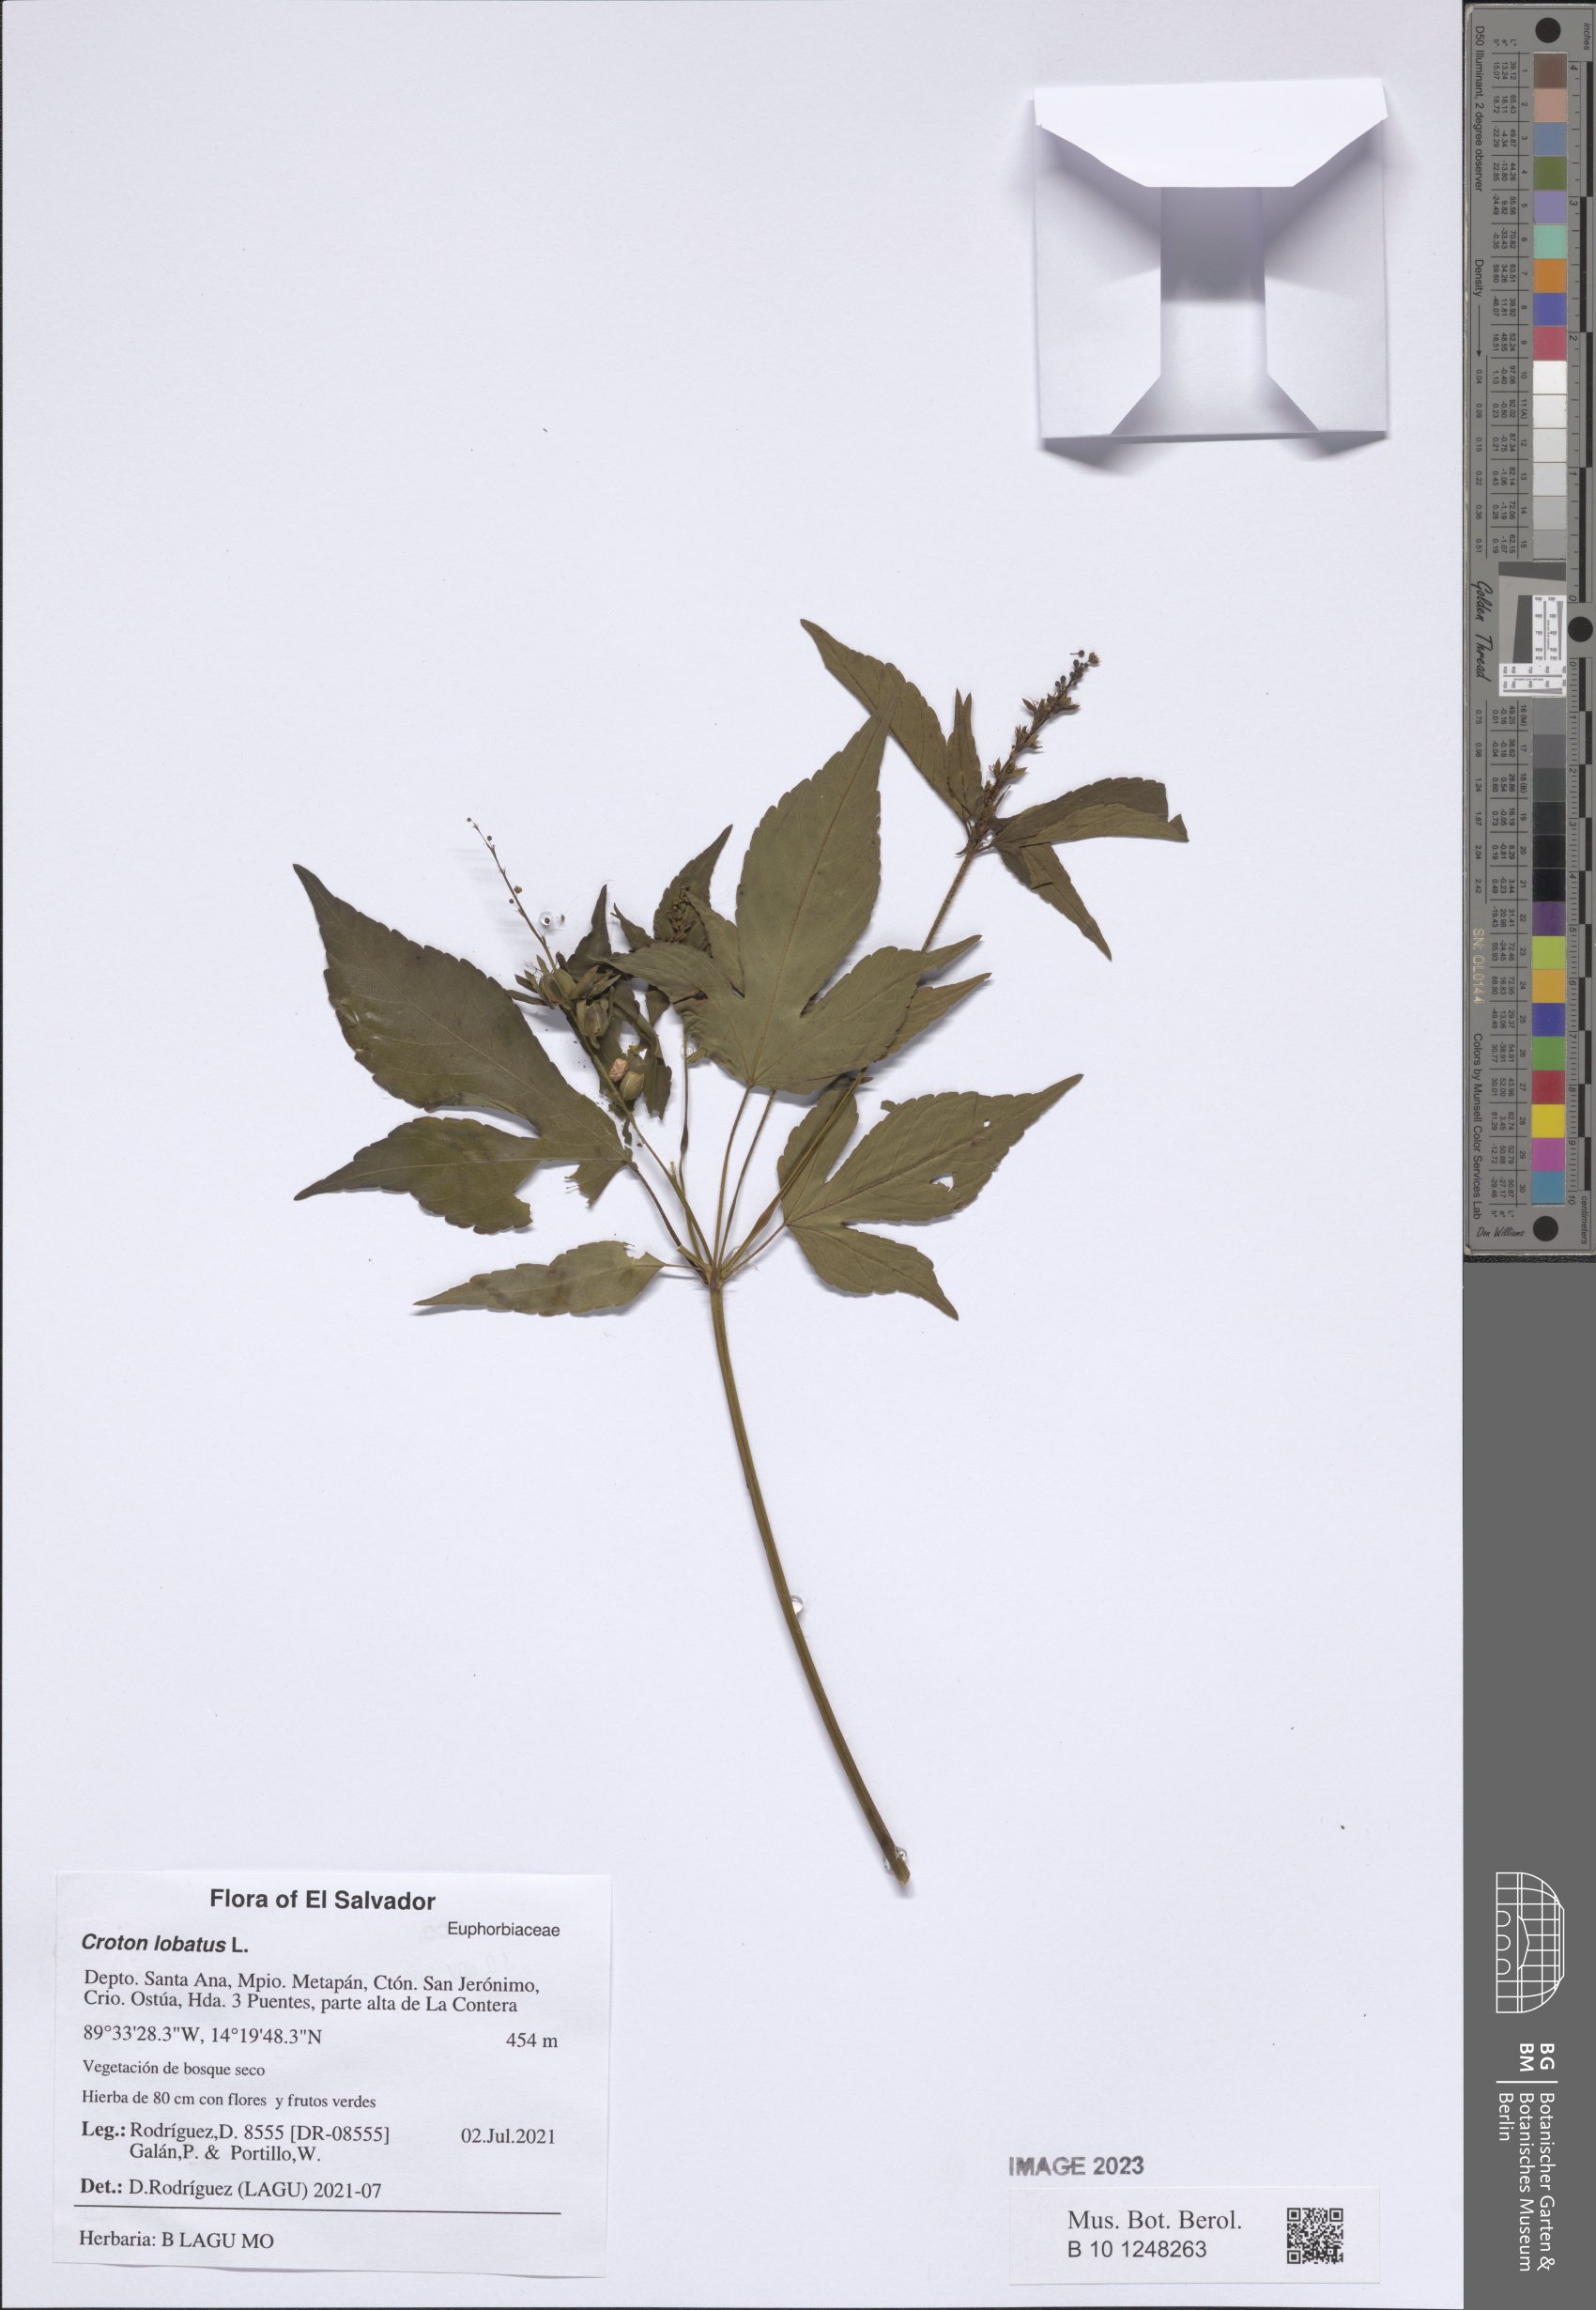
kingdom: Plantae
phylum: Tracheophyta
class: Magnoliopsida
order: Malpighiales
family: Euphorbiaceae
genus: Astraea
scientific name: Astraea lobata
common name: Lobed croton
